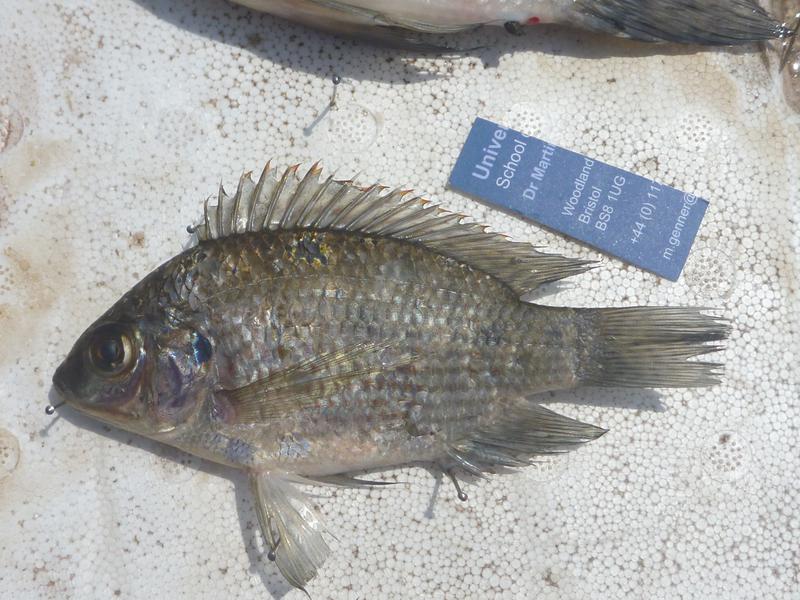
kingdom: Animalia
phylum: Chordata
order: Perciformes
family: Cichlidae
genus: Oreochromis
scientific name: Oreochromis upembae
